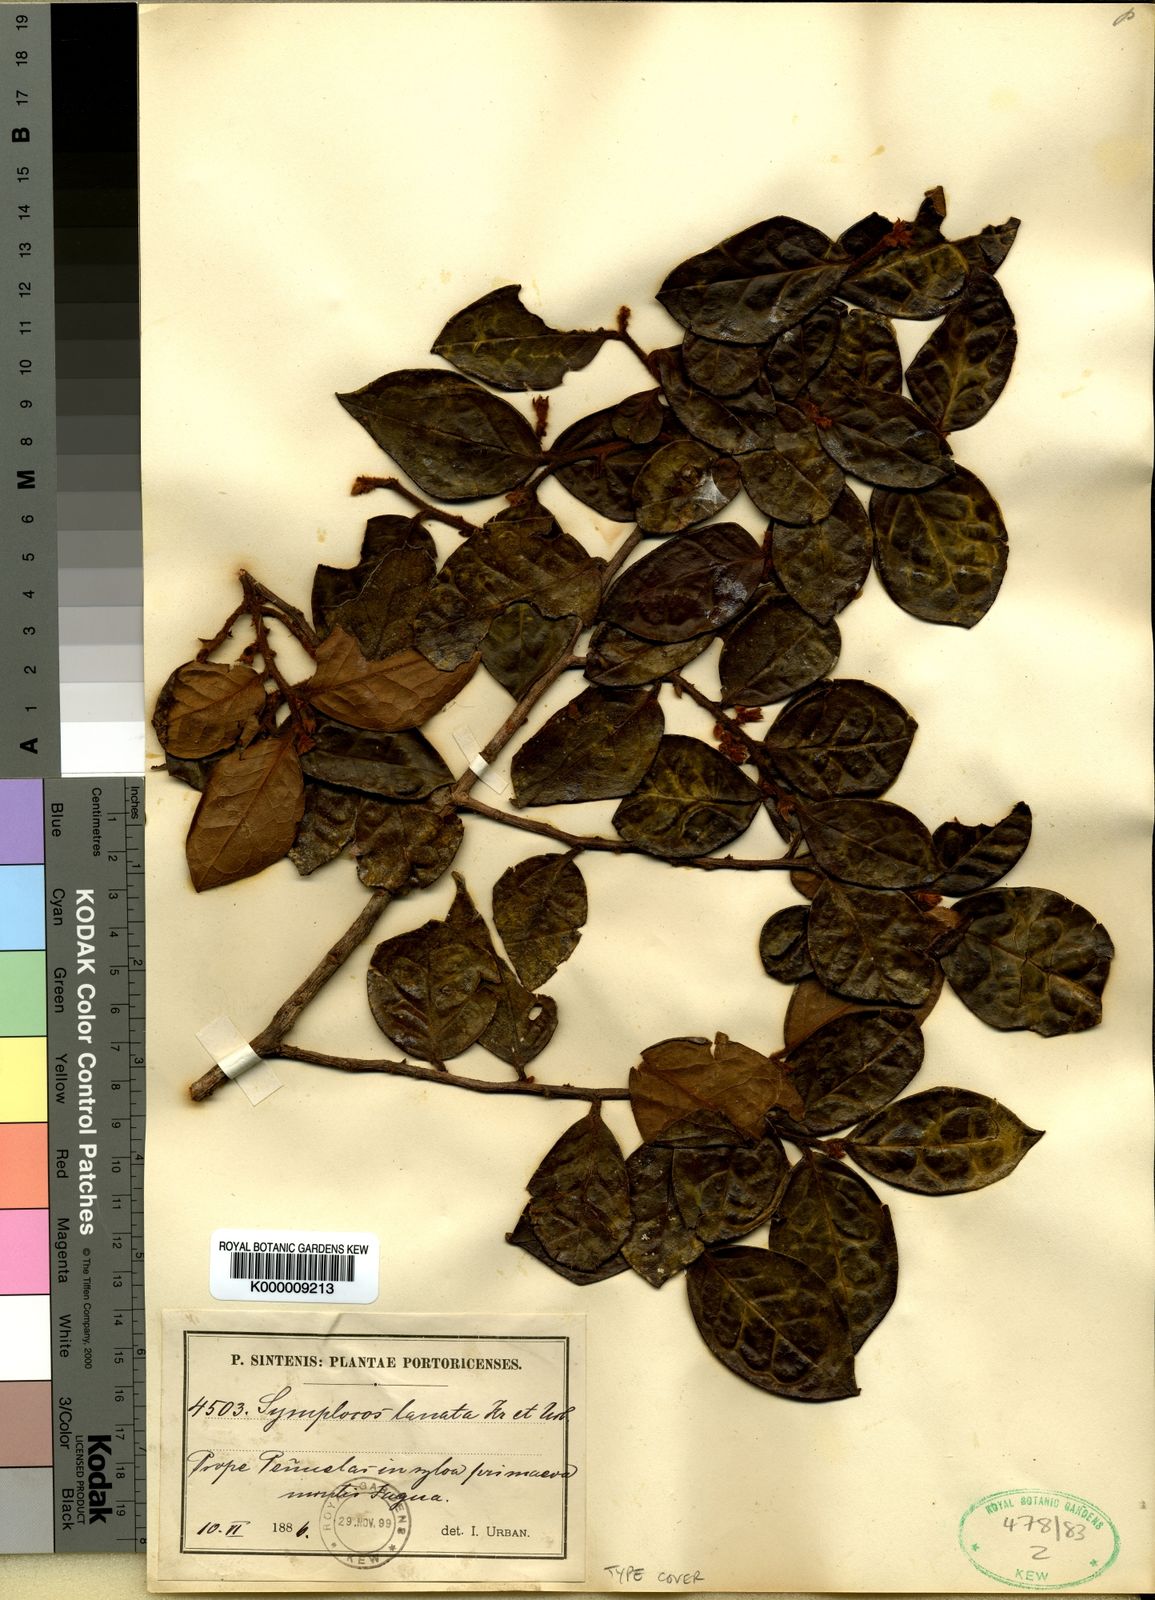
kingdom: Plantae
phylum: Tracheophyta
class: Magnoliopsida
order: Ericales
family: Symplocaceae
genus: Symplocos
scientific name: Symplocos lanata
